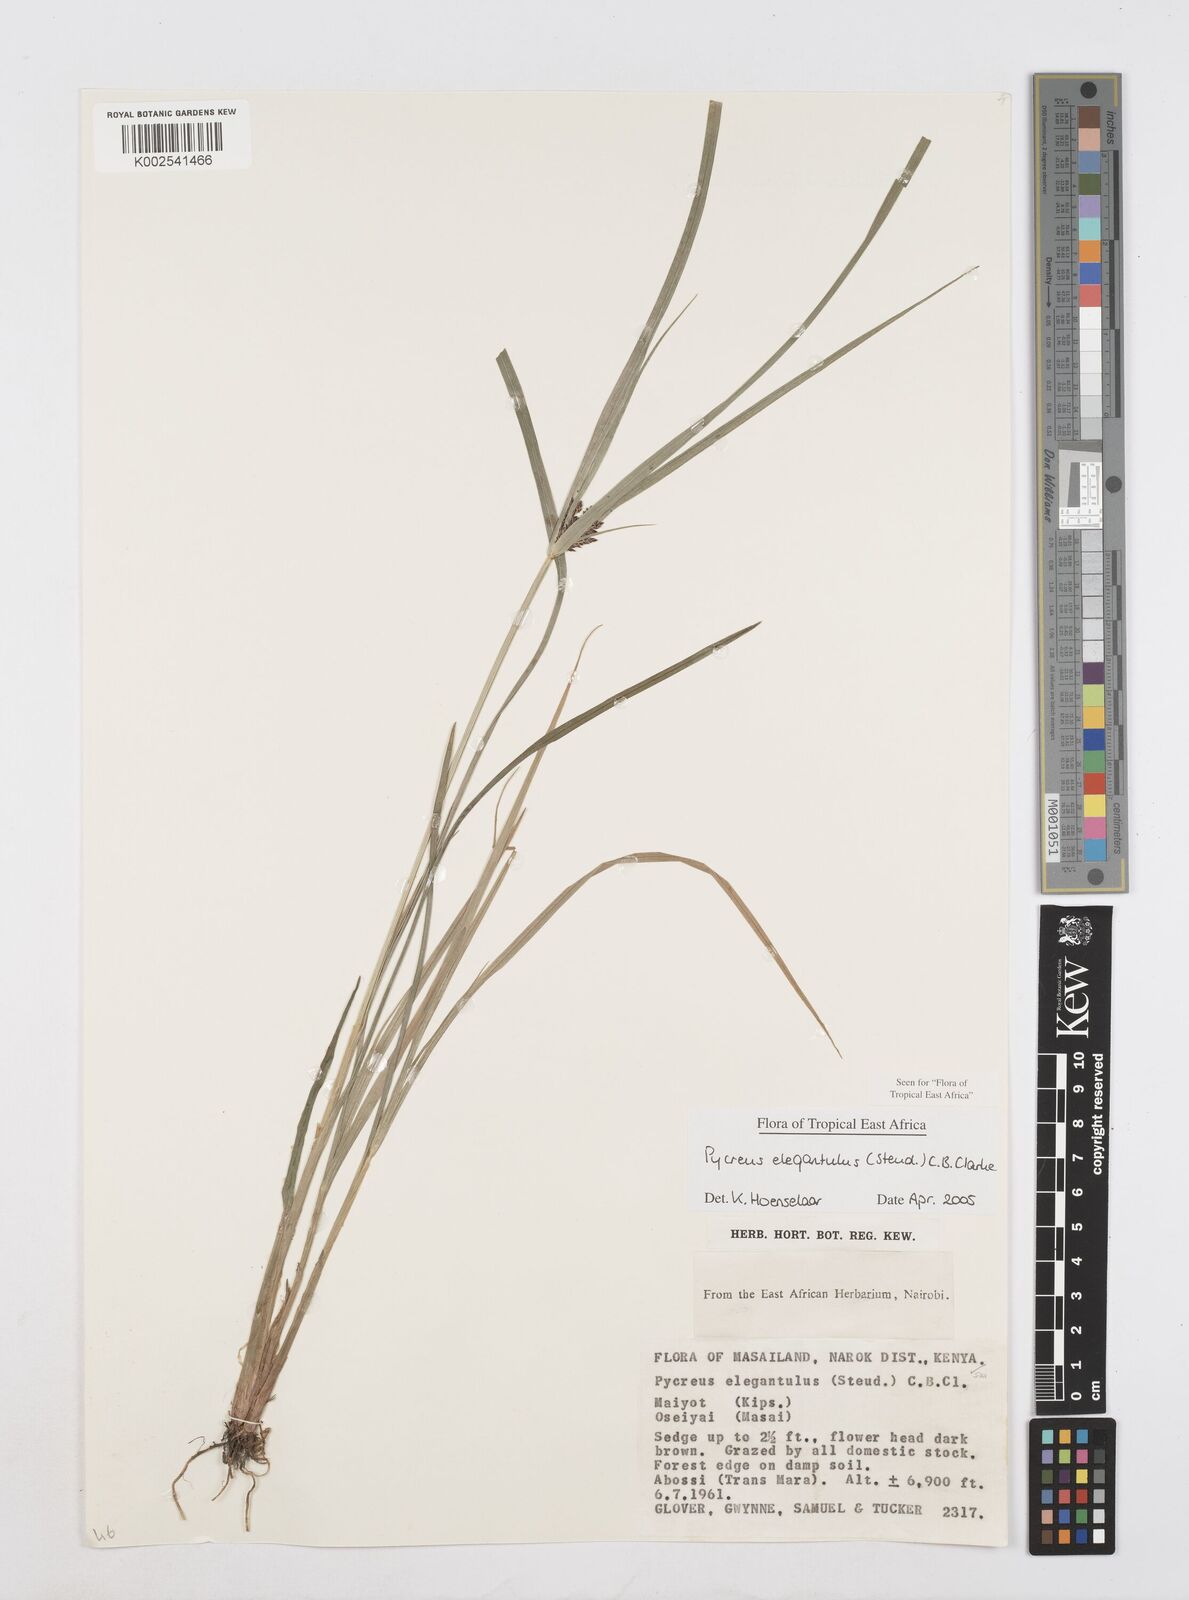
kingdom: Plantae
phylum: Tracheophyta
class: Liliopsida
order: Poales
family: Cyperaceae
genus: Cyperus
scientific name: Cyperus elegantulus
